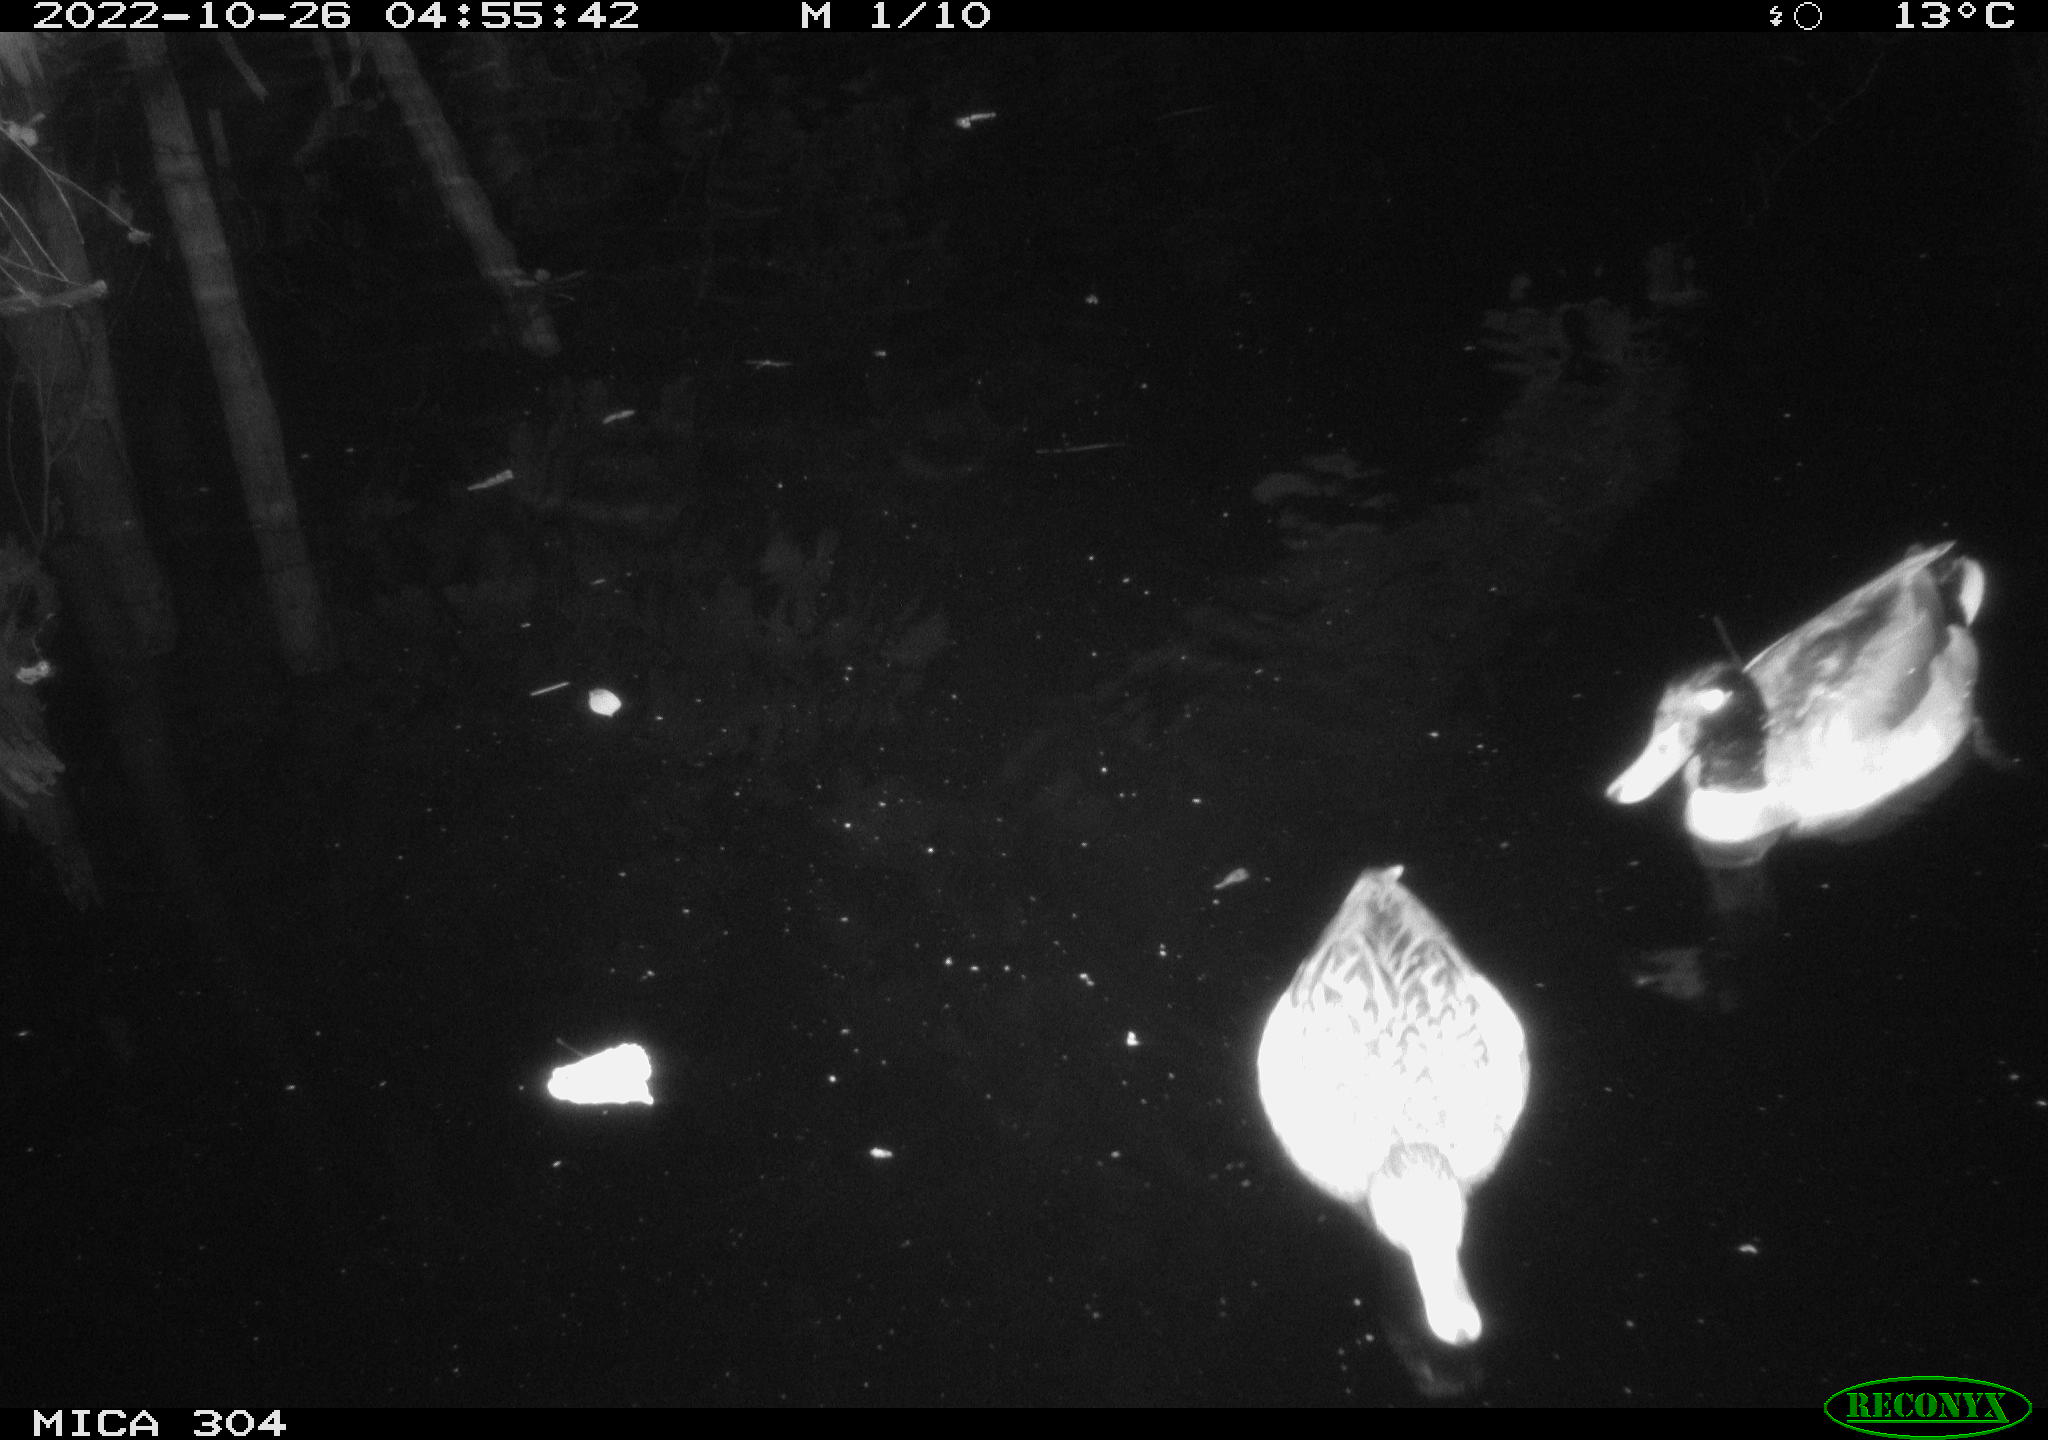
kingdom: Animalia
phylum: Chordata
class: Aves
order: Anseriformes
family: Anatidae
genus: Anas
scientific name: Anas
